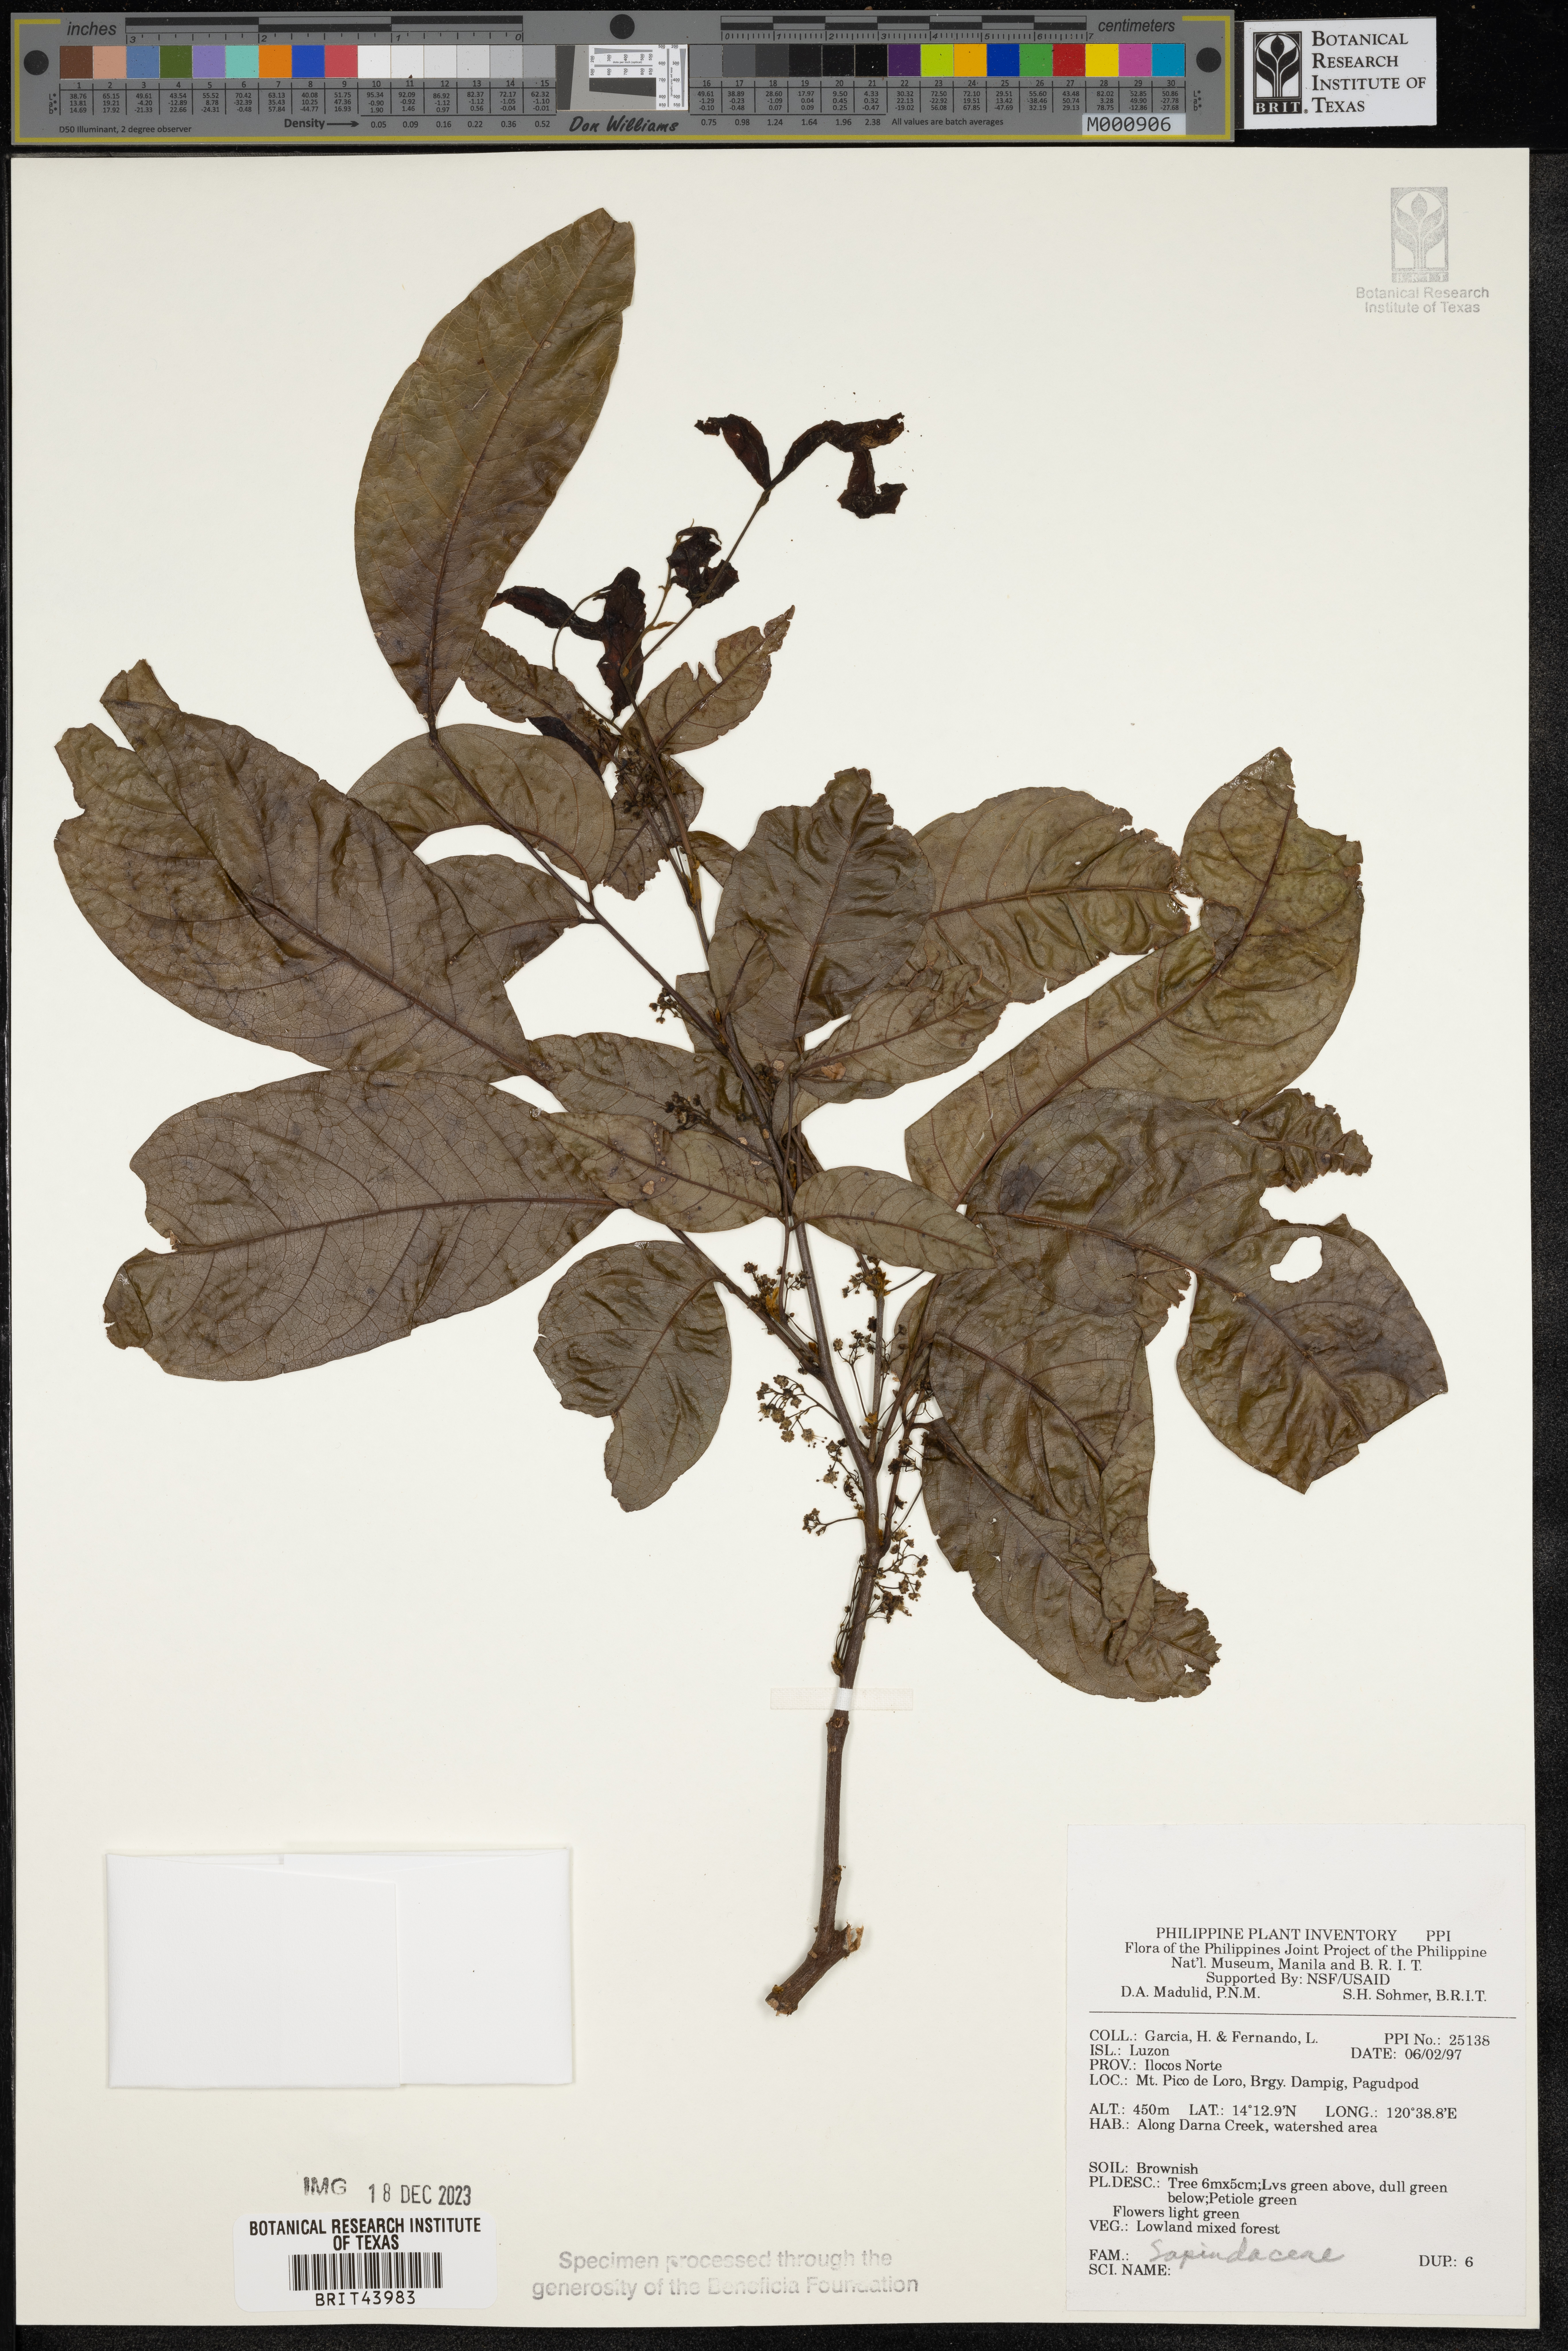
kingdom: Plantae
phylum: Tracheophyta
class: Magnoliopsida
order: Sapindales
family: Sapindaceae
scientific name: Sapindaceae
